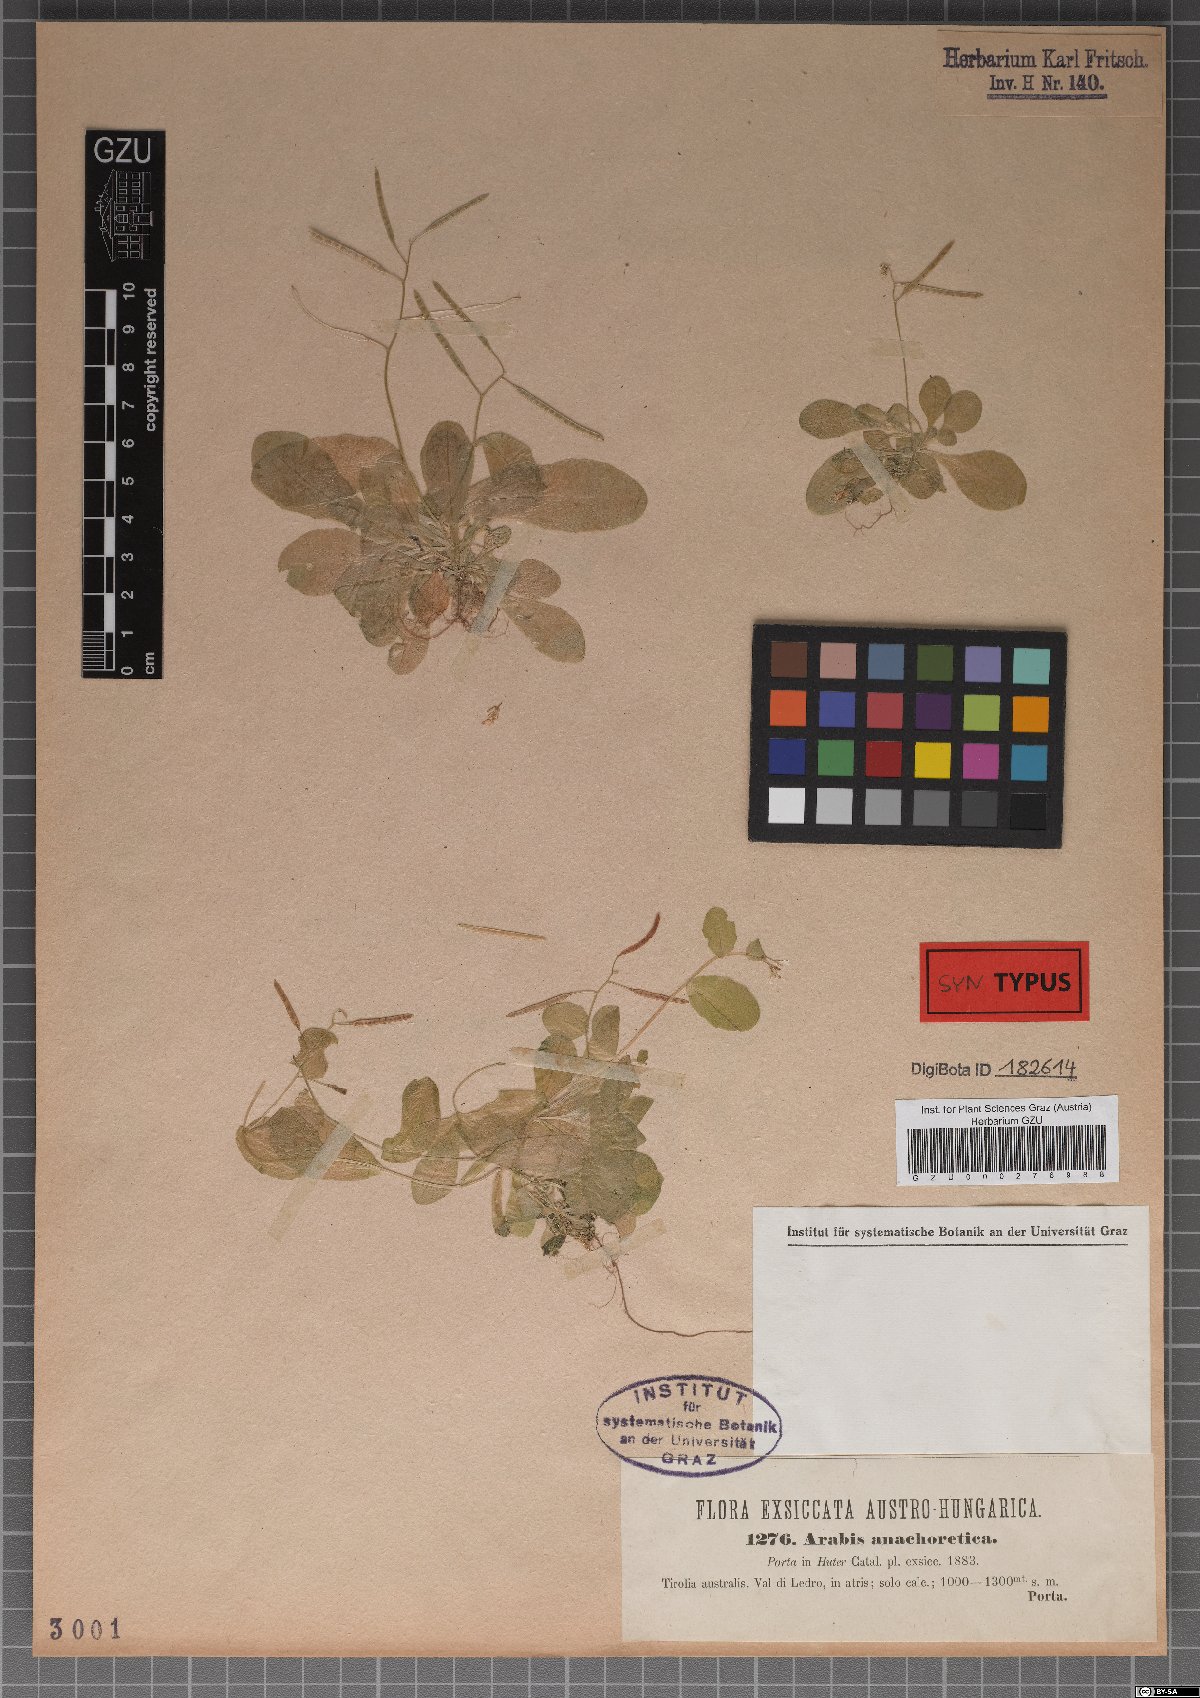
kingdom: Plantae
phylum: Tracheophyta
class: Magnoliopsida
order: Brassicales
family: Brassicaceae
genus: Arabis
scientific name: Arabis anachoretica
